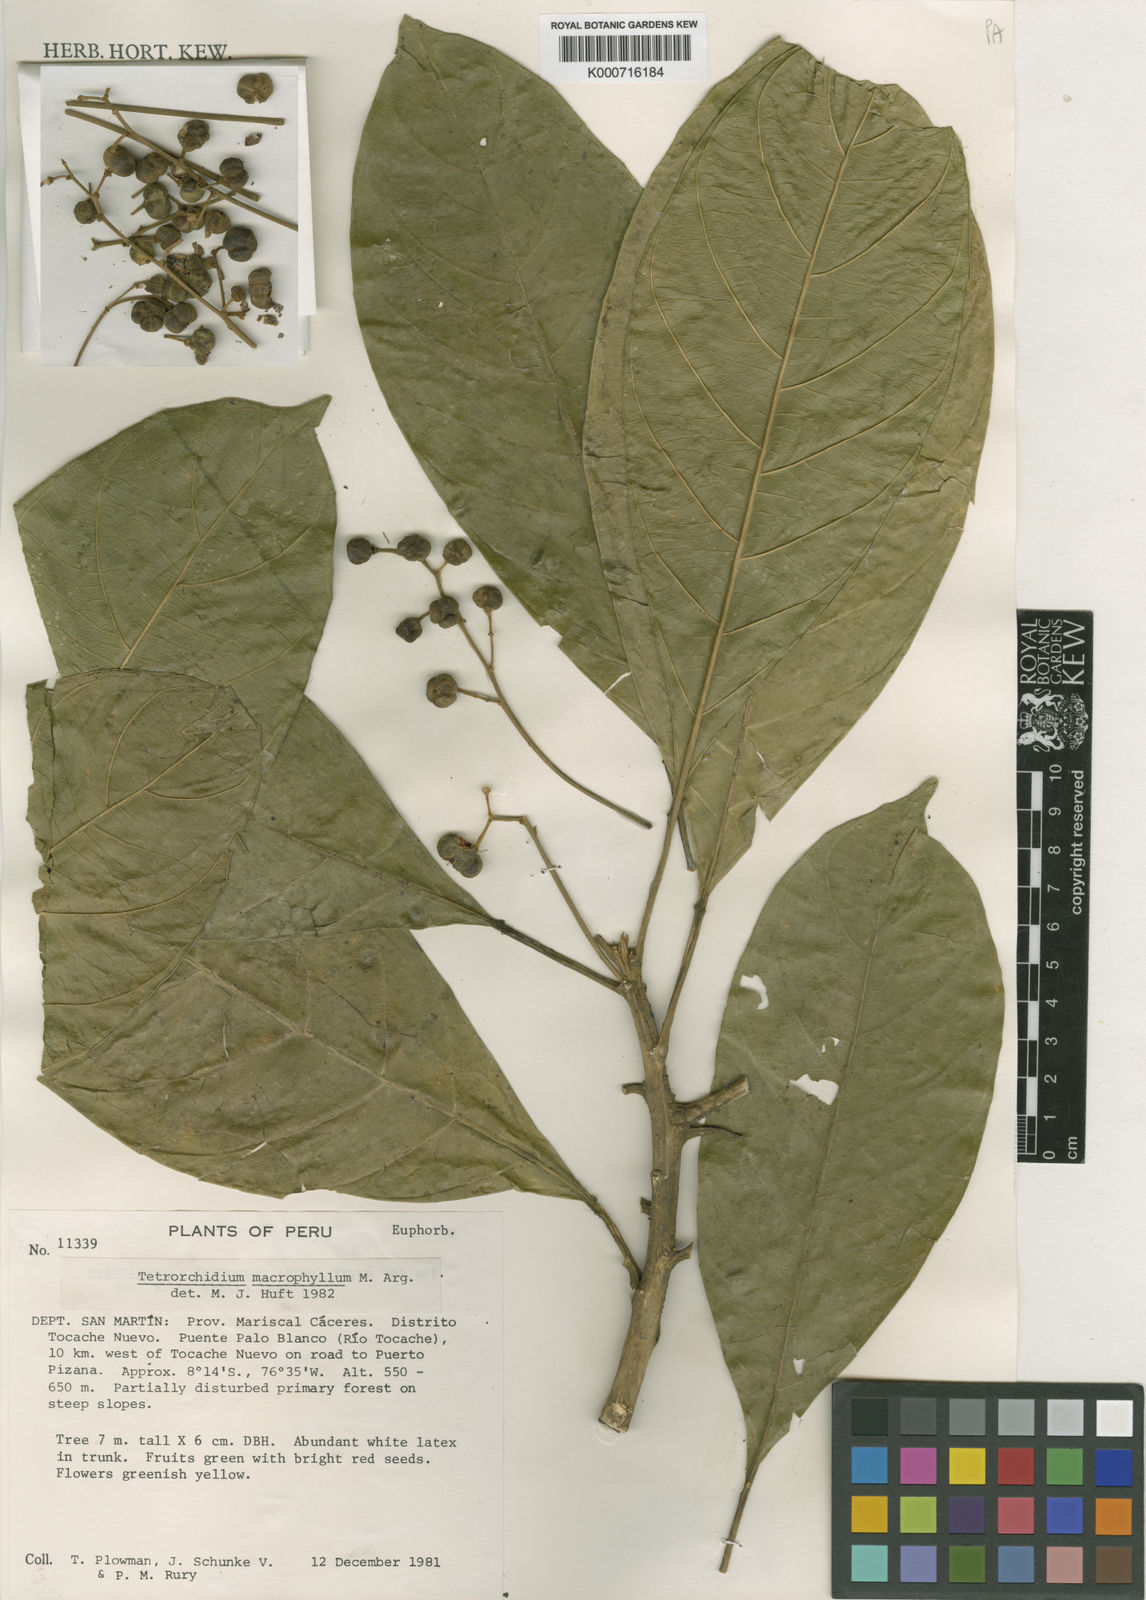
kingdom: Plantae
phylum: Tracheophyta
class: Magnoliopsida
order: Malpighiales
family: Euphorbiaceae
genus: Tetrorchidium
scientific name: Tetrorchidium
